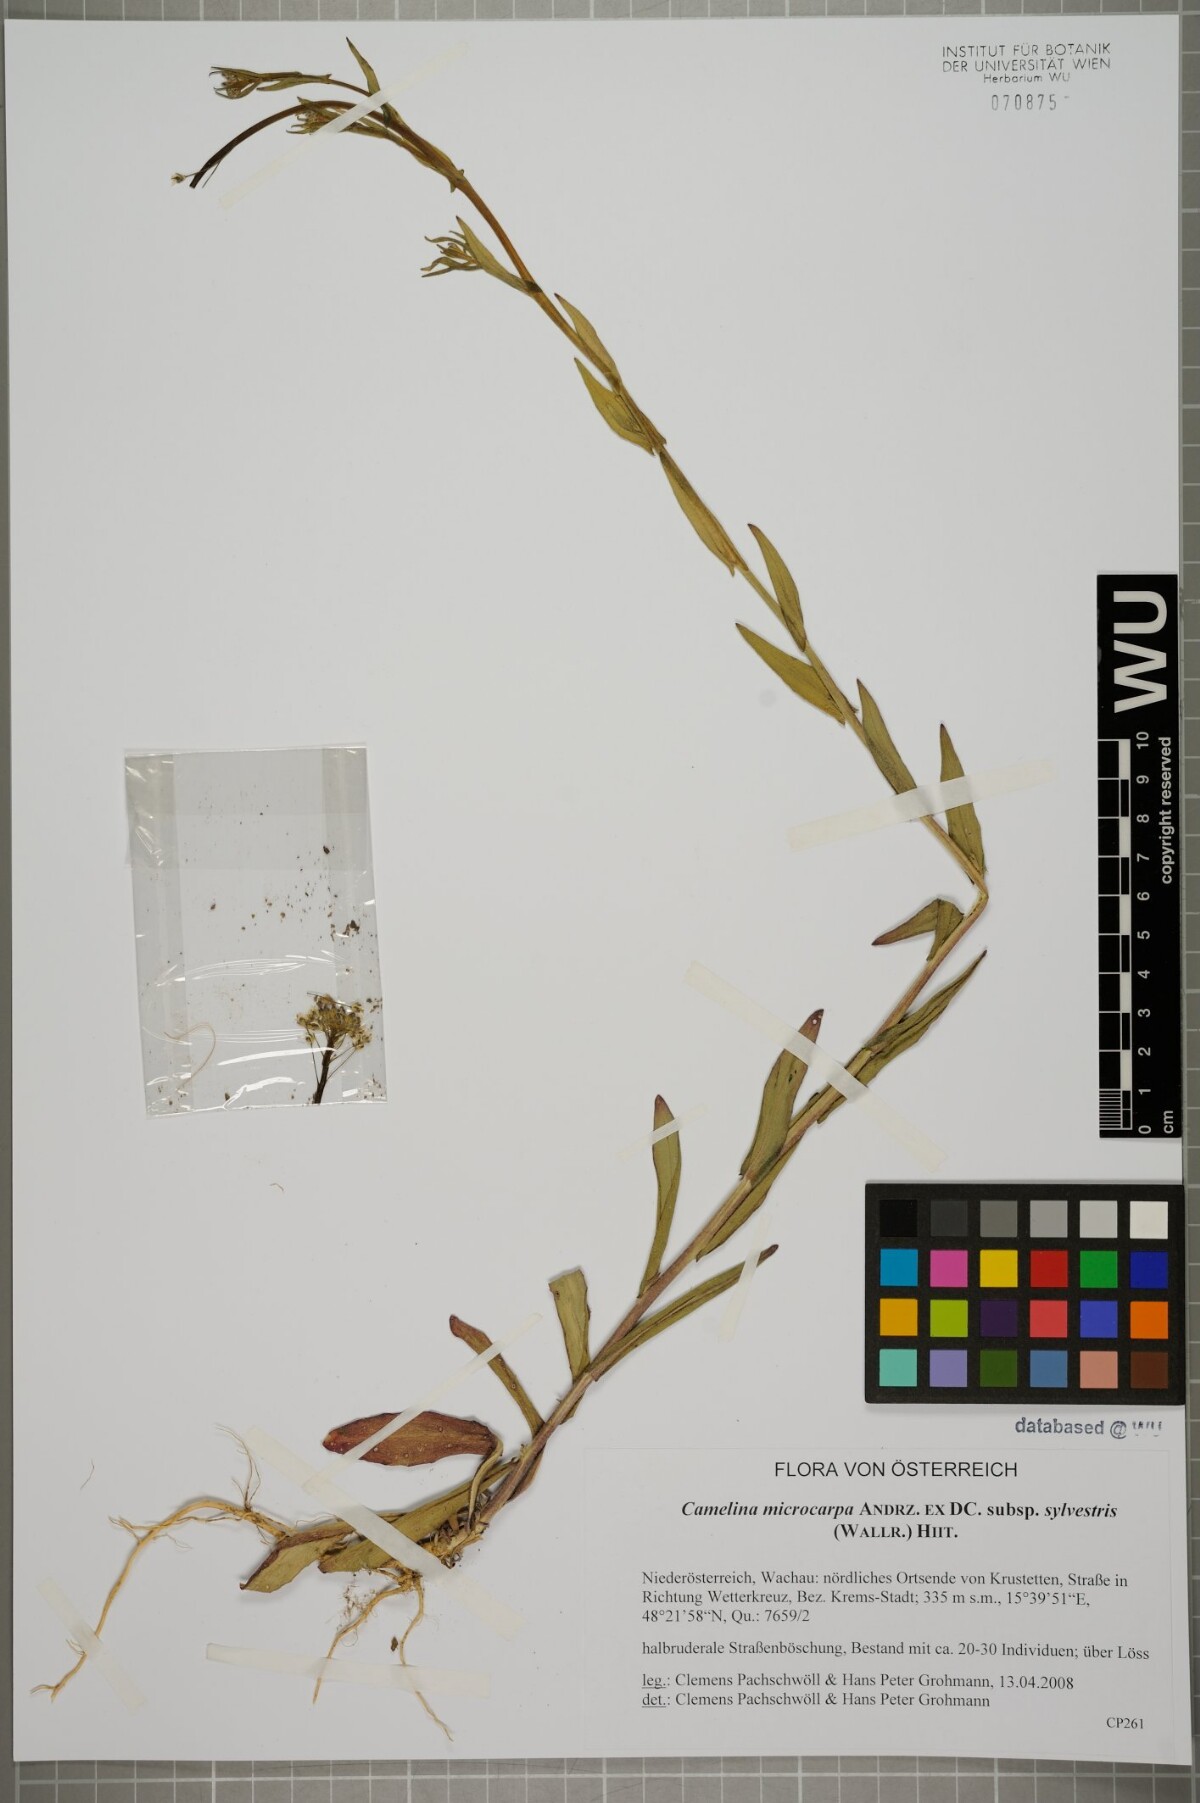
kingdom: Plantae
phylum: Tracheophyta
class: Magnoliopsida
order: Brassicales
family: Brassicaceae
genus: Camelina
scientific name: Camelina microcarpa
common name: Lesser gold-of-pleasure
